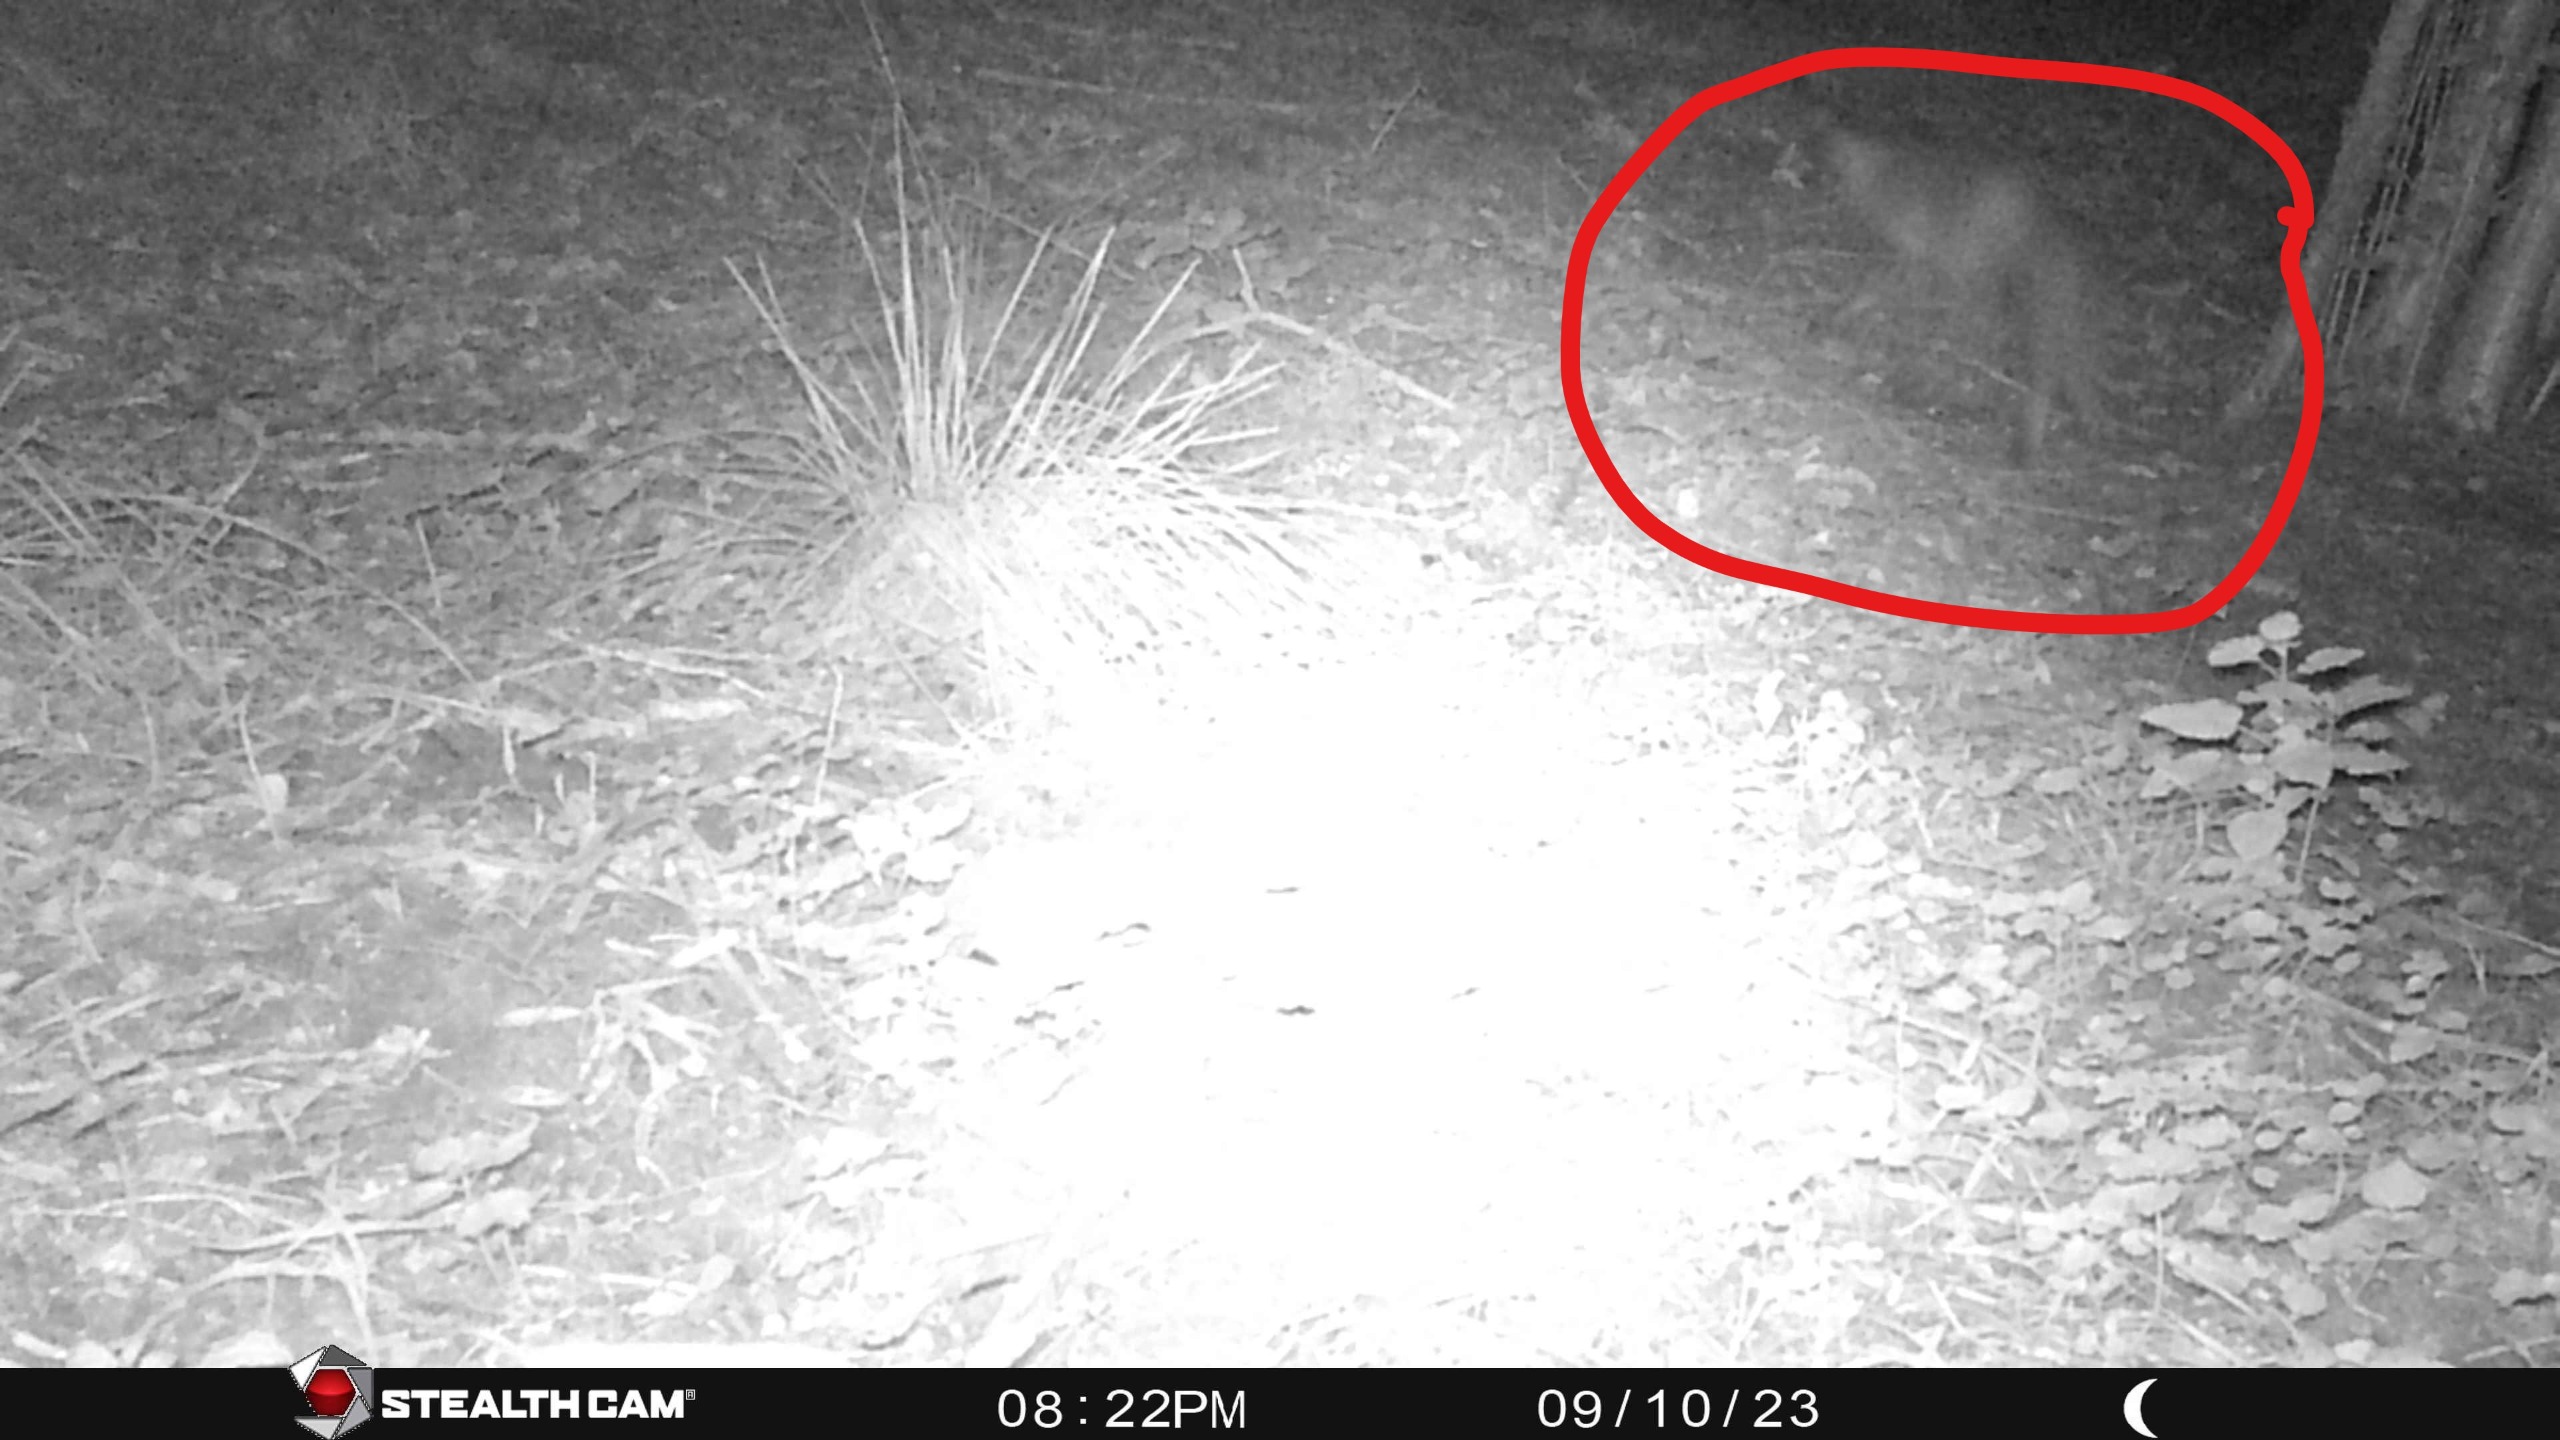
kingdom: Animalia
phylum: Chordata
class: Mammalia
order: Carnivora
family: Canidae
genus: Vulpes
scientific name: Vulpes vulpes
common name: Ræv
